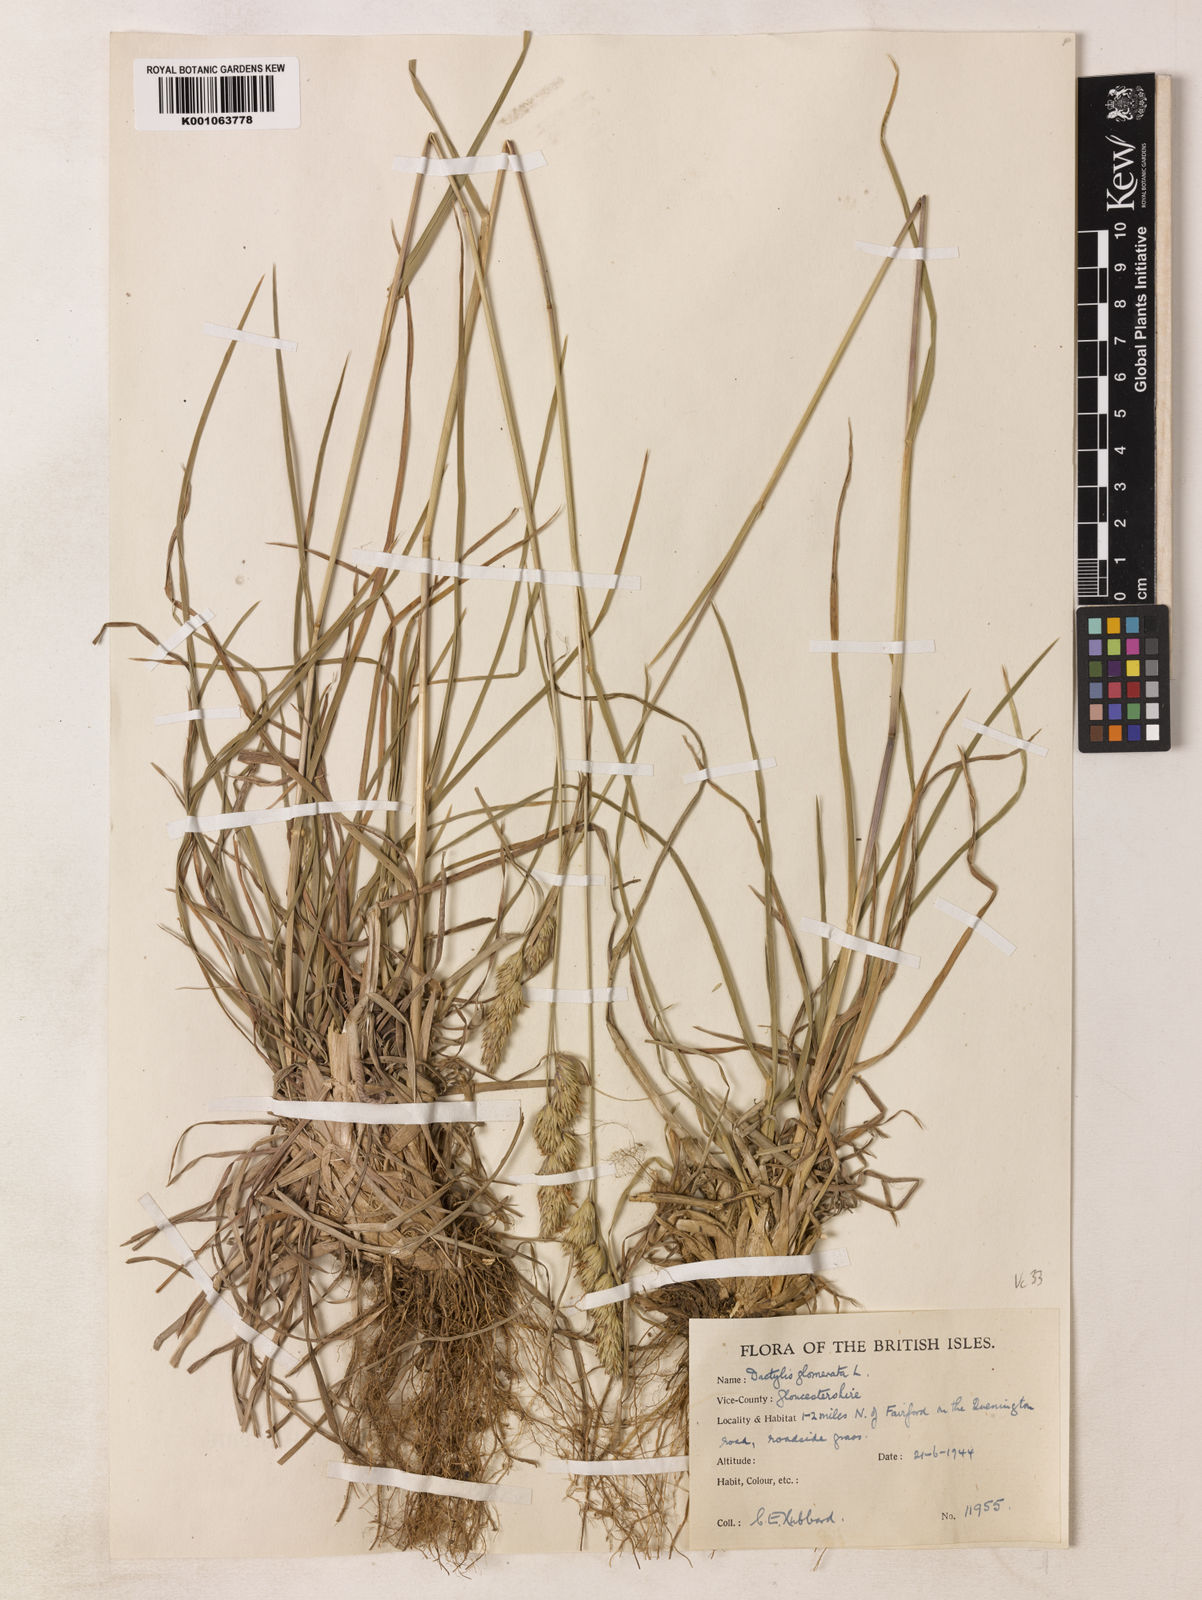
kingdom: Plantae
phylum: Tracheophyta
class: Liliopsida
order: Poales
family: Poaceae
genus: Dactylis
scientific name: Dactylis glomerata
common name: Orchardgrass
